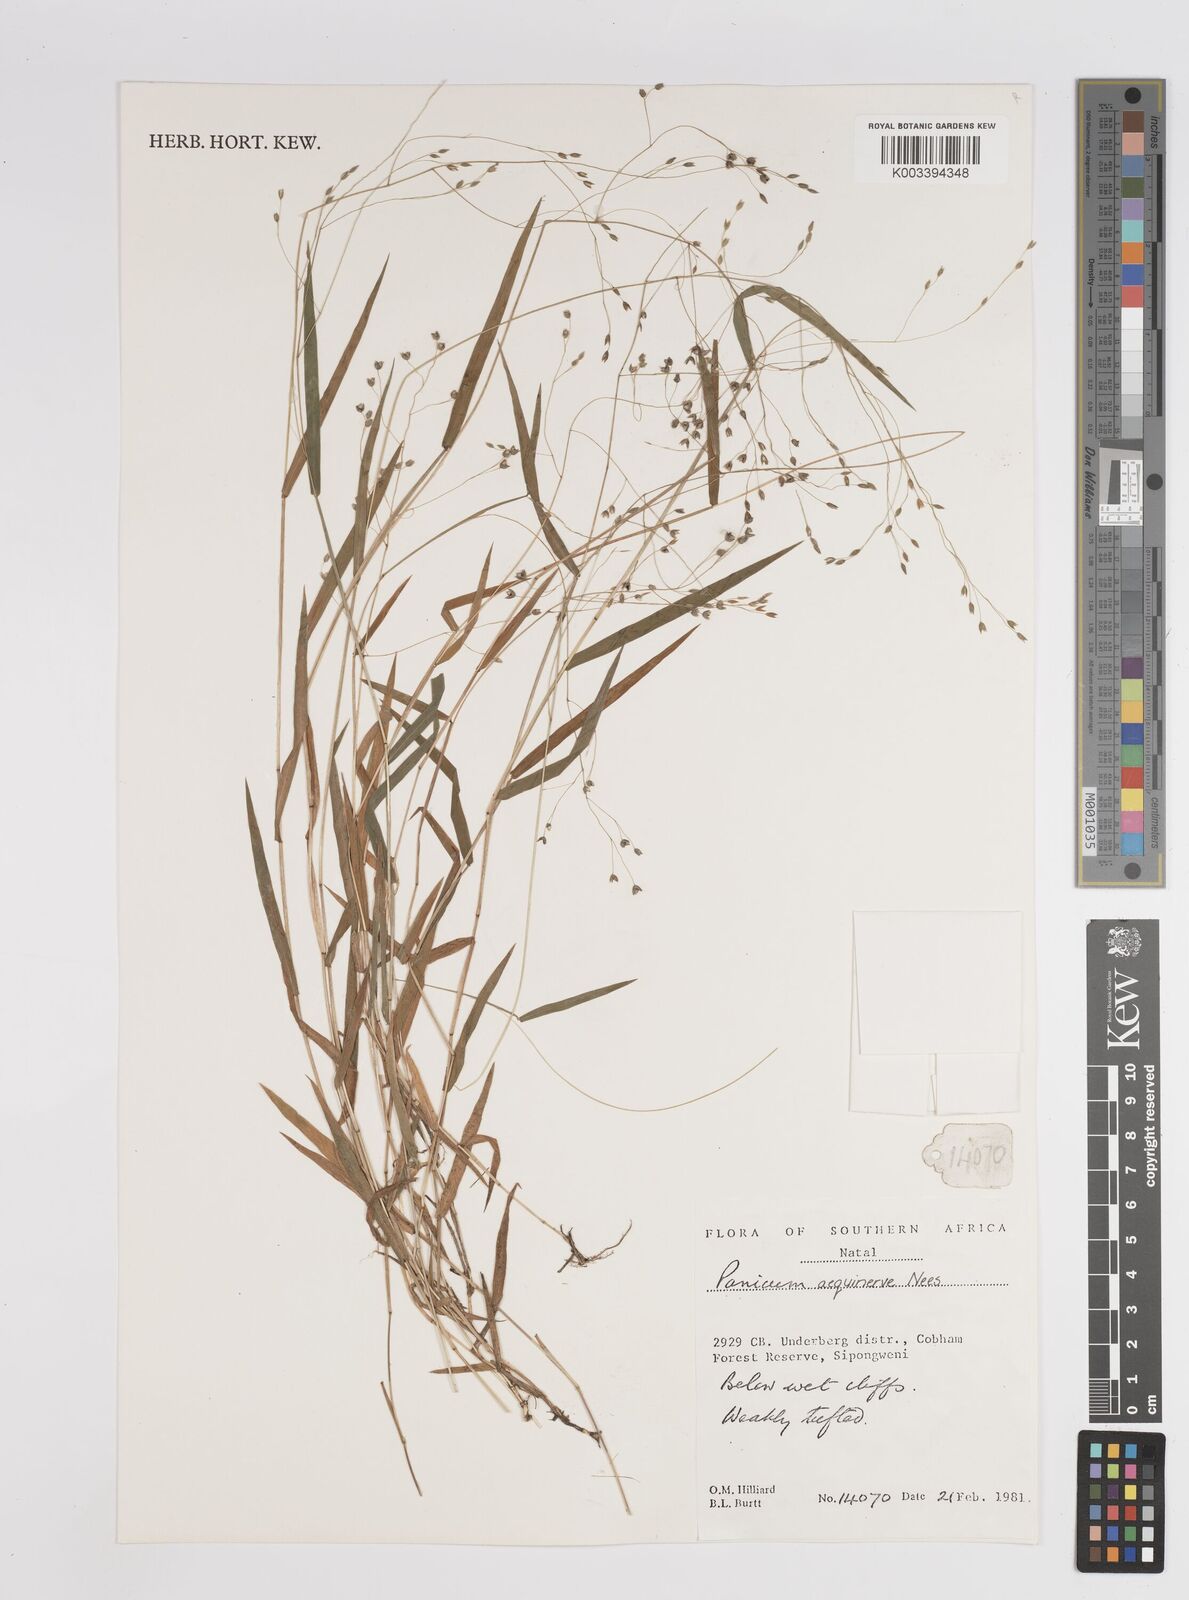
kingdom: Plantae
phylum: Tracheophyta
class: Liliopsida
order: Poales
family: Poaceae
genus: Panicum
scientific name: Panicum aequinerve
